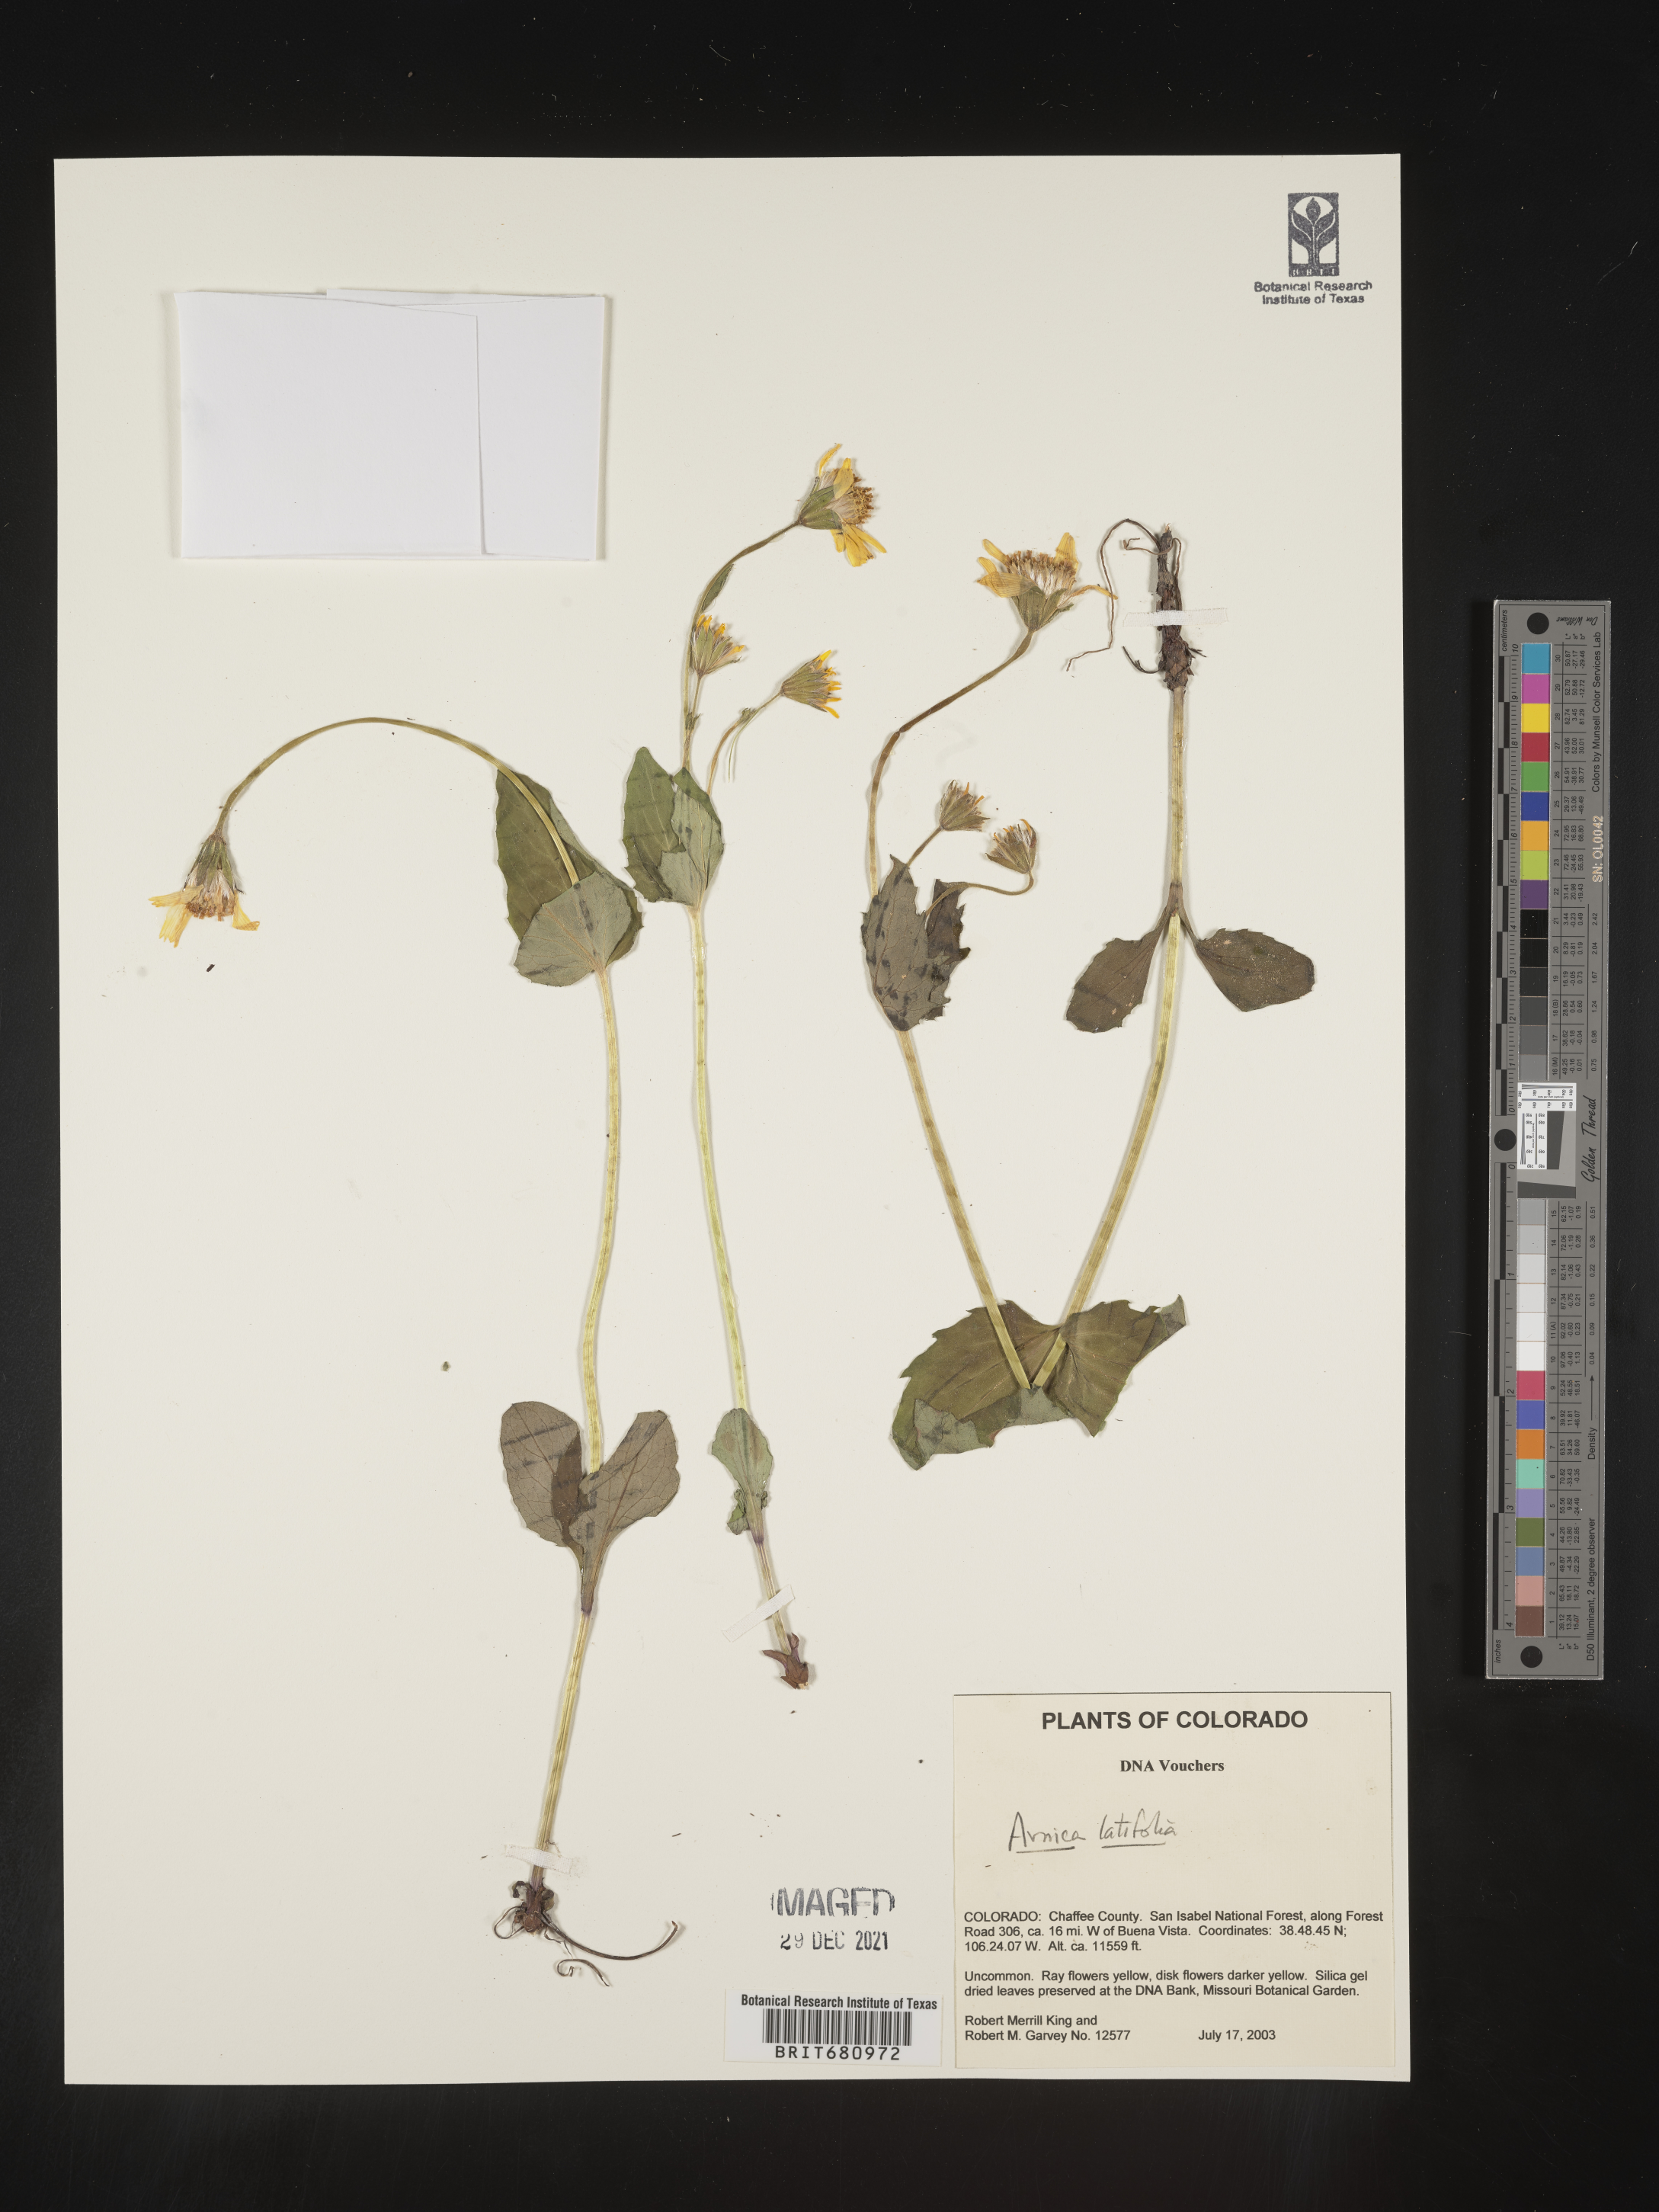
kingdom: Plantae
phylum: Tracheophyta
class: Magnoliopsida
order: Asterales
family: Asteraceae
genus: Arnica
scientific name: Arnica latifolia
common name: Arnica
